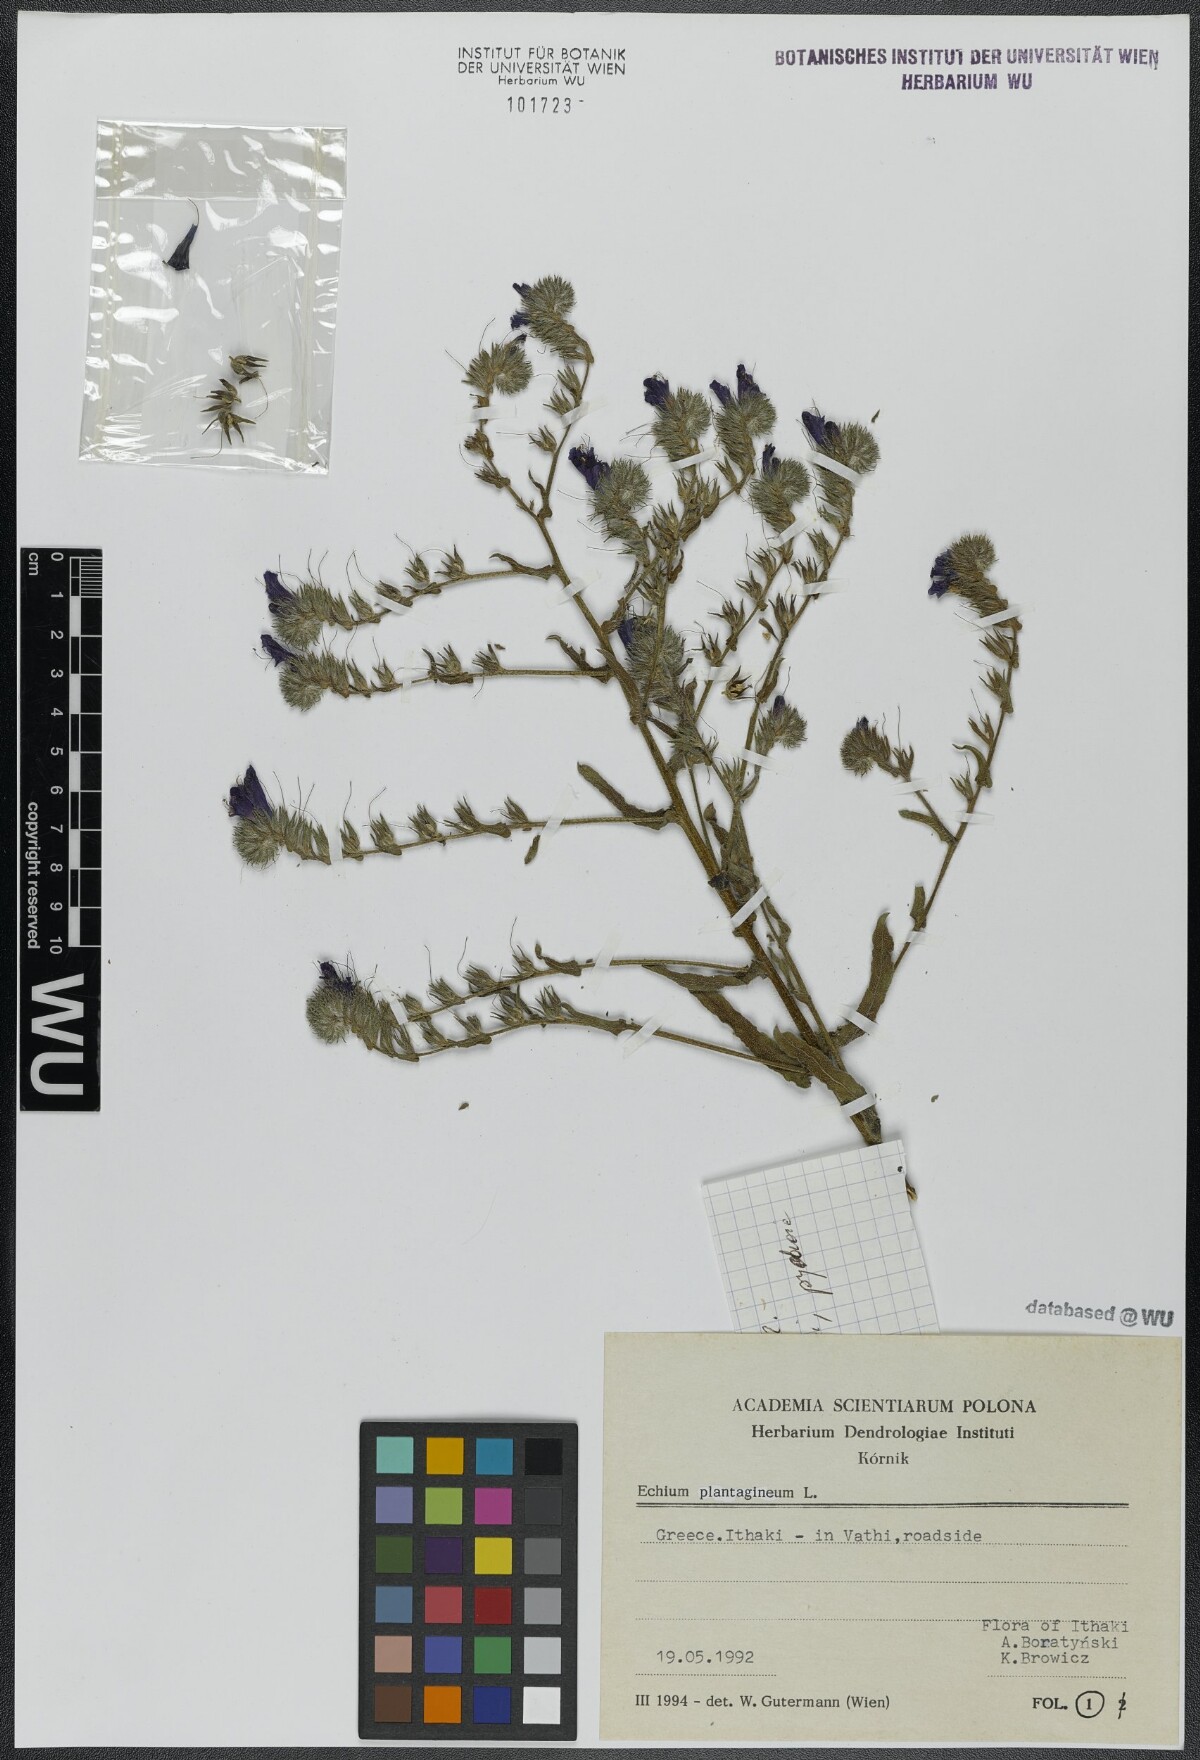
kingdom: Plantae
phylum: Tracheophyta
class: Magnoliopsida
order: Boraginales
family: Boraginaceae
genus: Echium
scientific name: Echium plantagineum
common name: Purple viper's-bugloss
